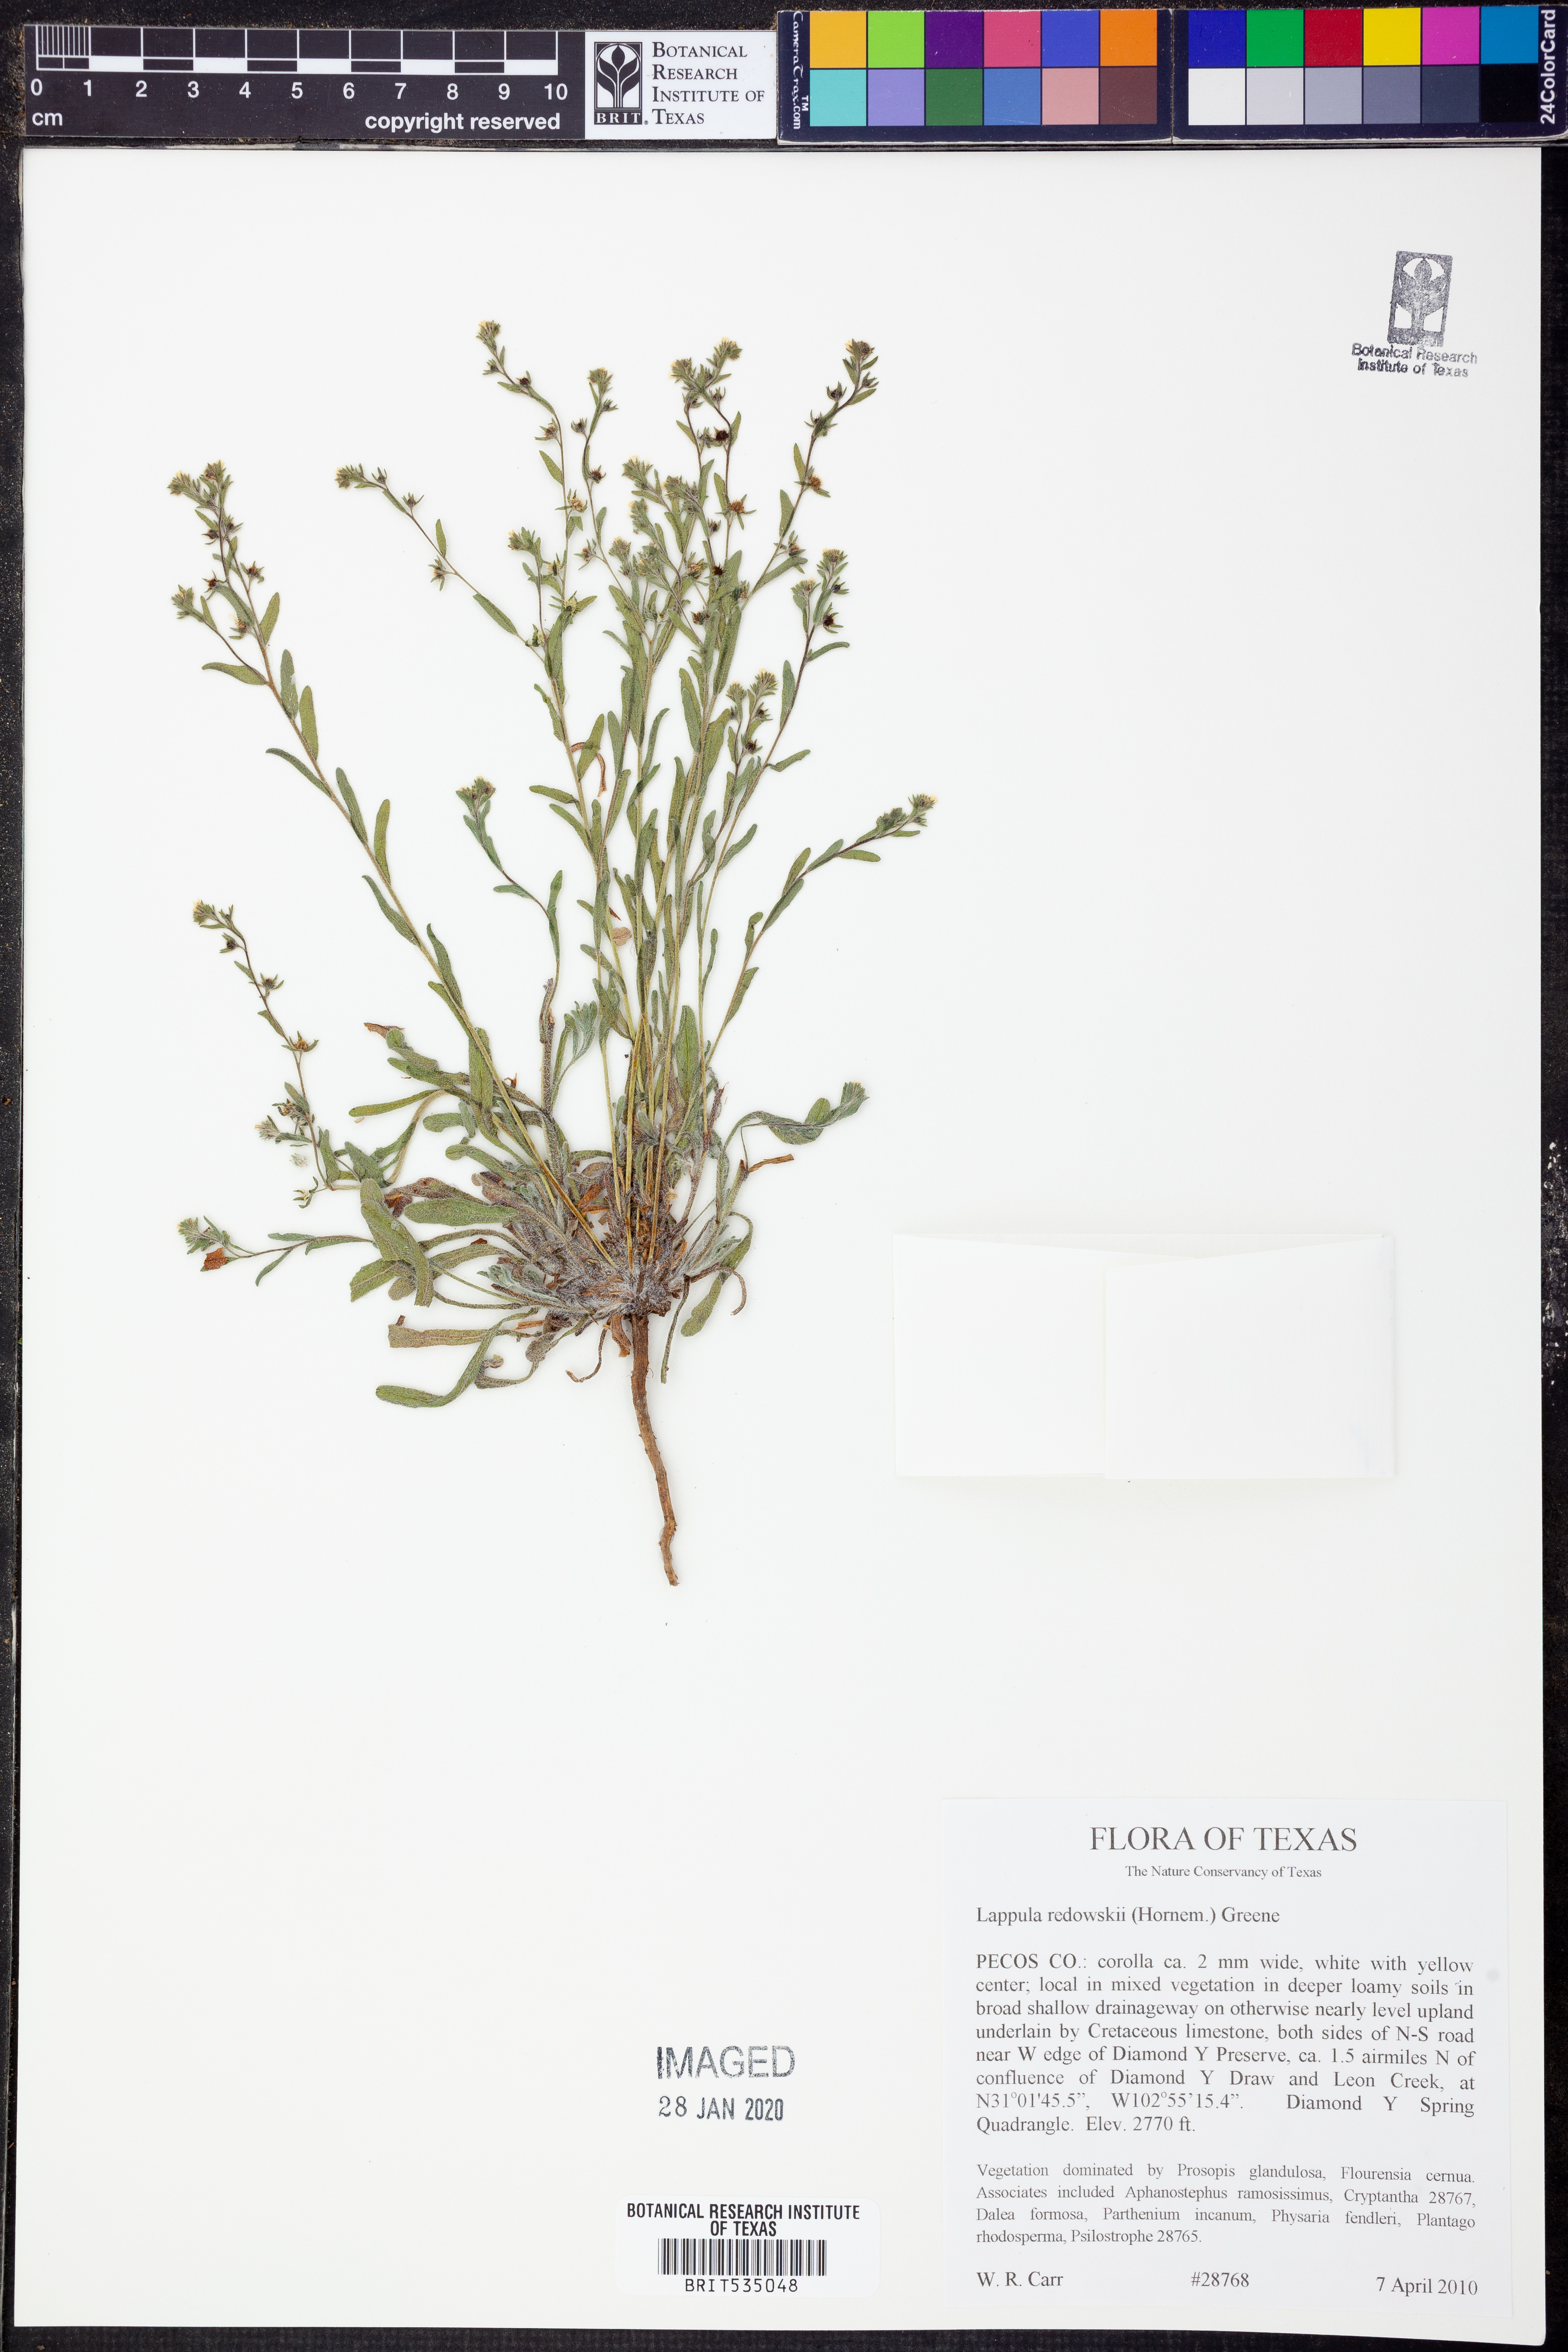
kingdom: Plantae
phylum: Tracheophyta
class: Magnoliopsida
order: Boraginales
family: Boraginaceae
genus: Lappula
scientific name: Lappula redowskii
